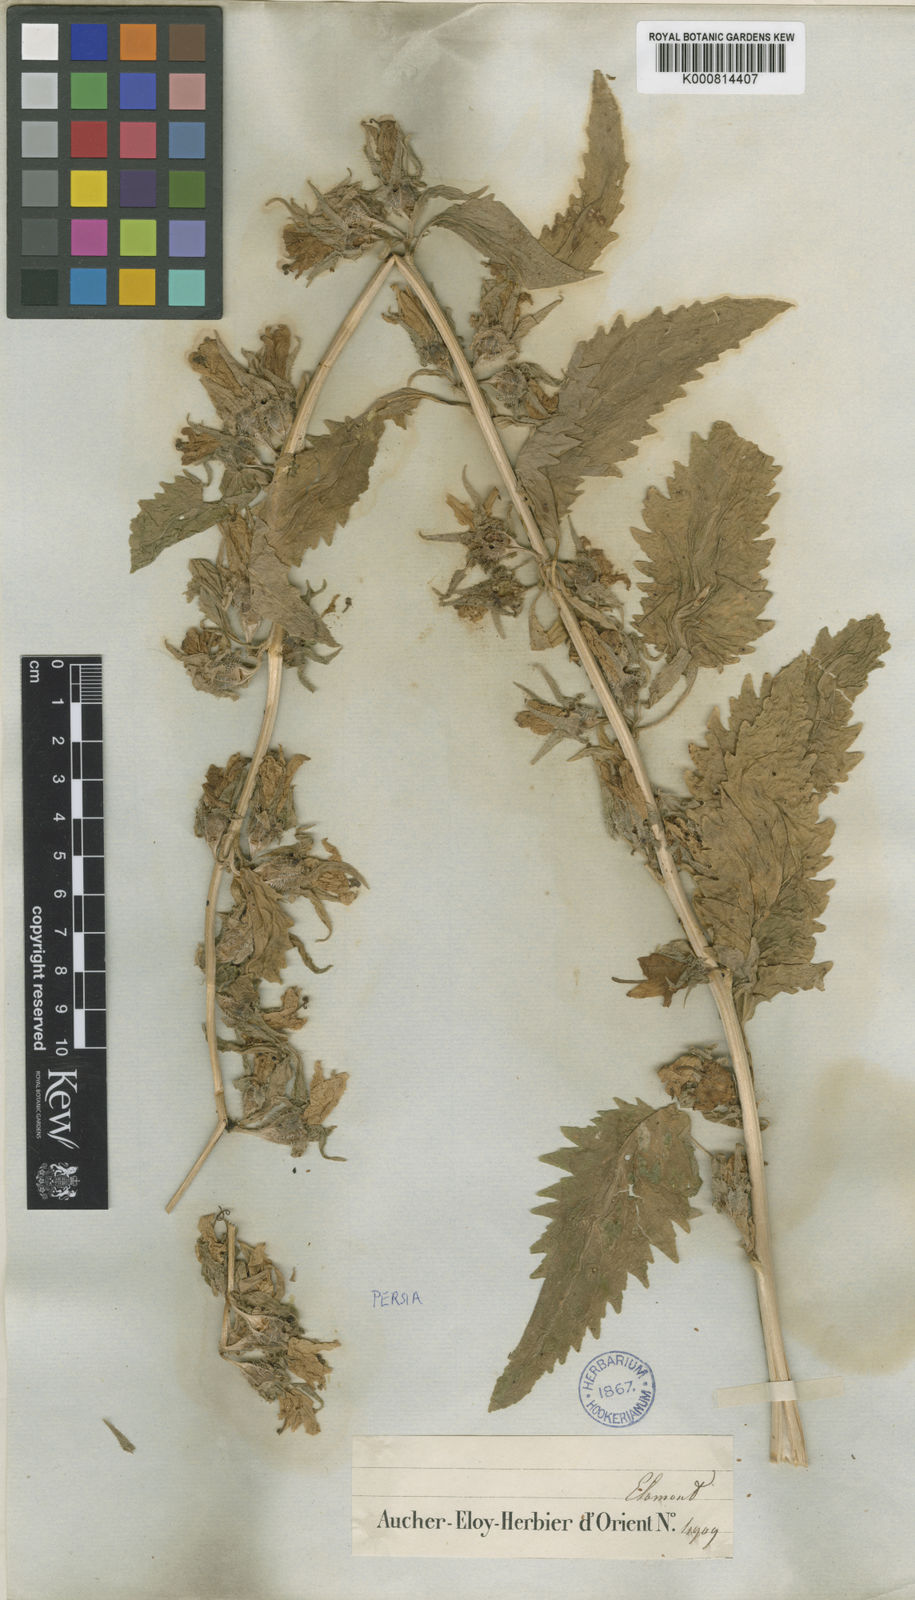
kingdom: Plantae
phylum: Tracheophyta
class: Magnoliopsida
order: Asterales
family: Campanulaceae
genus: Campanula
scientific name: Campanula sclerotricha
